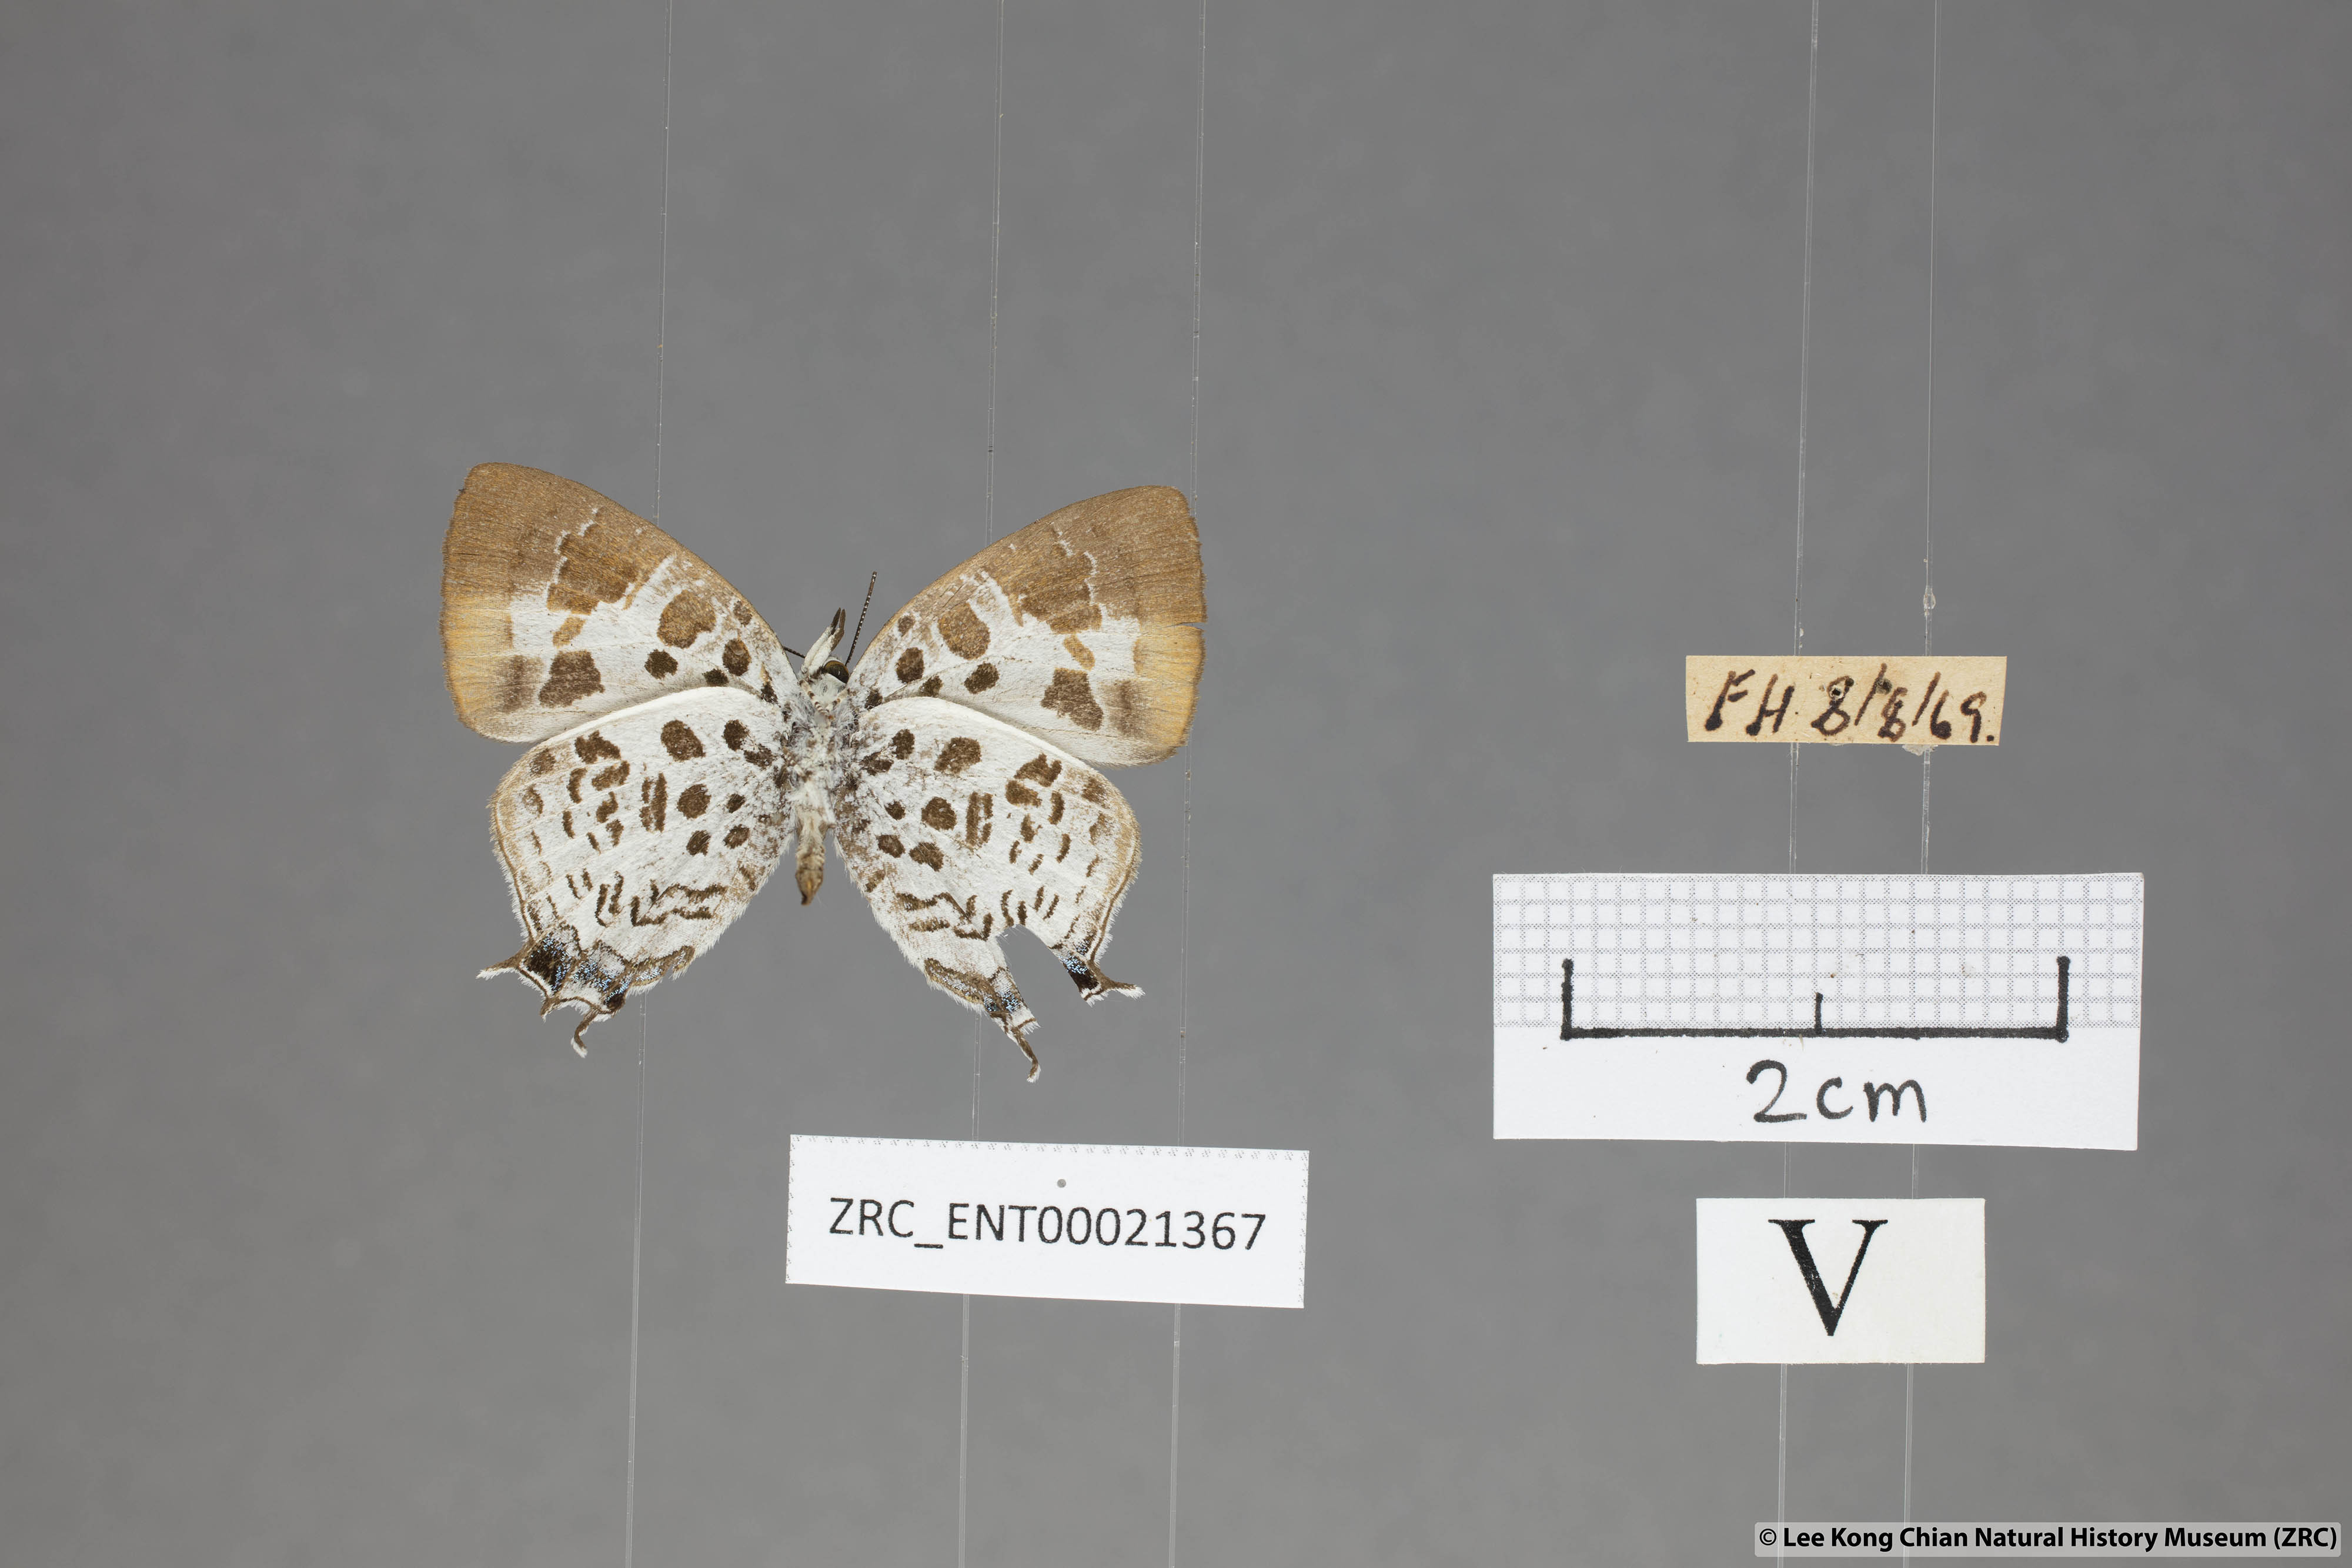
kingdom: Animalia
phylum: Arthropoda
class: Insecta
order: Lepidoptera
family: Lycaenidae
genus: Drupadia
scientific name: Drupadia estella
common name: White-craved posy
